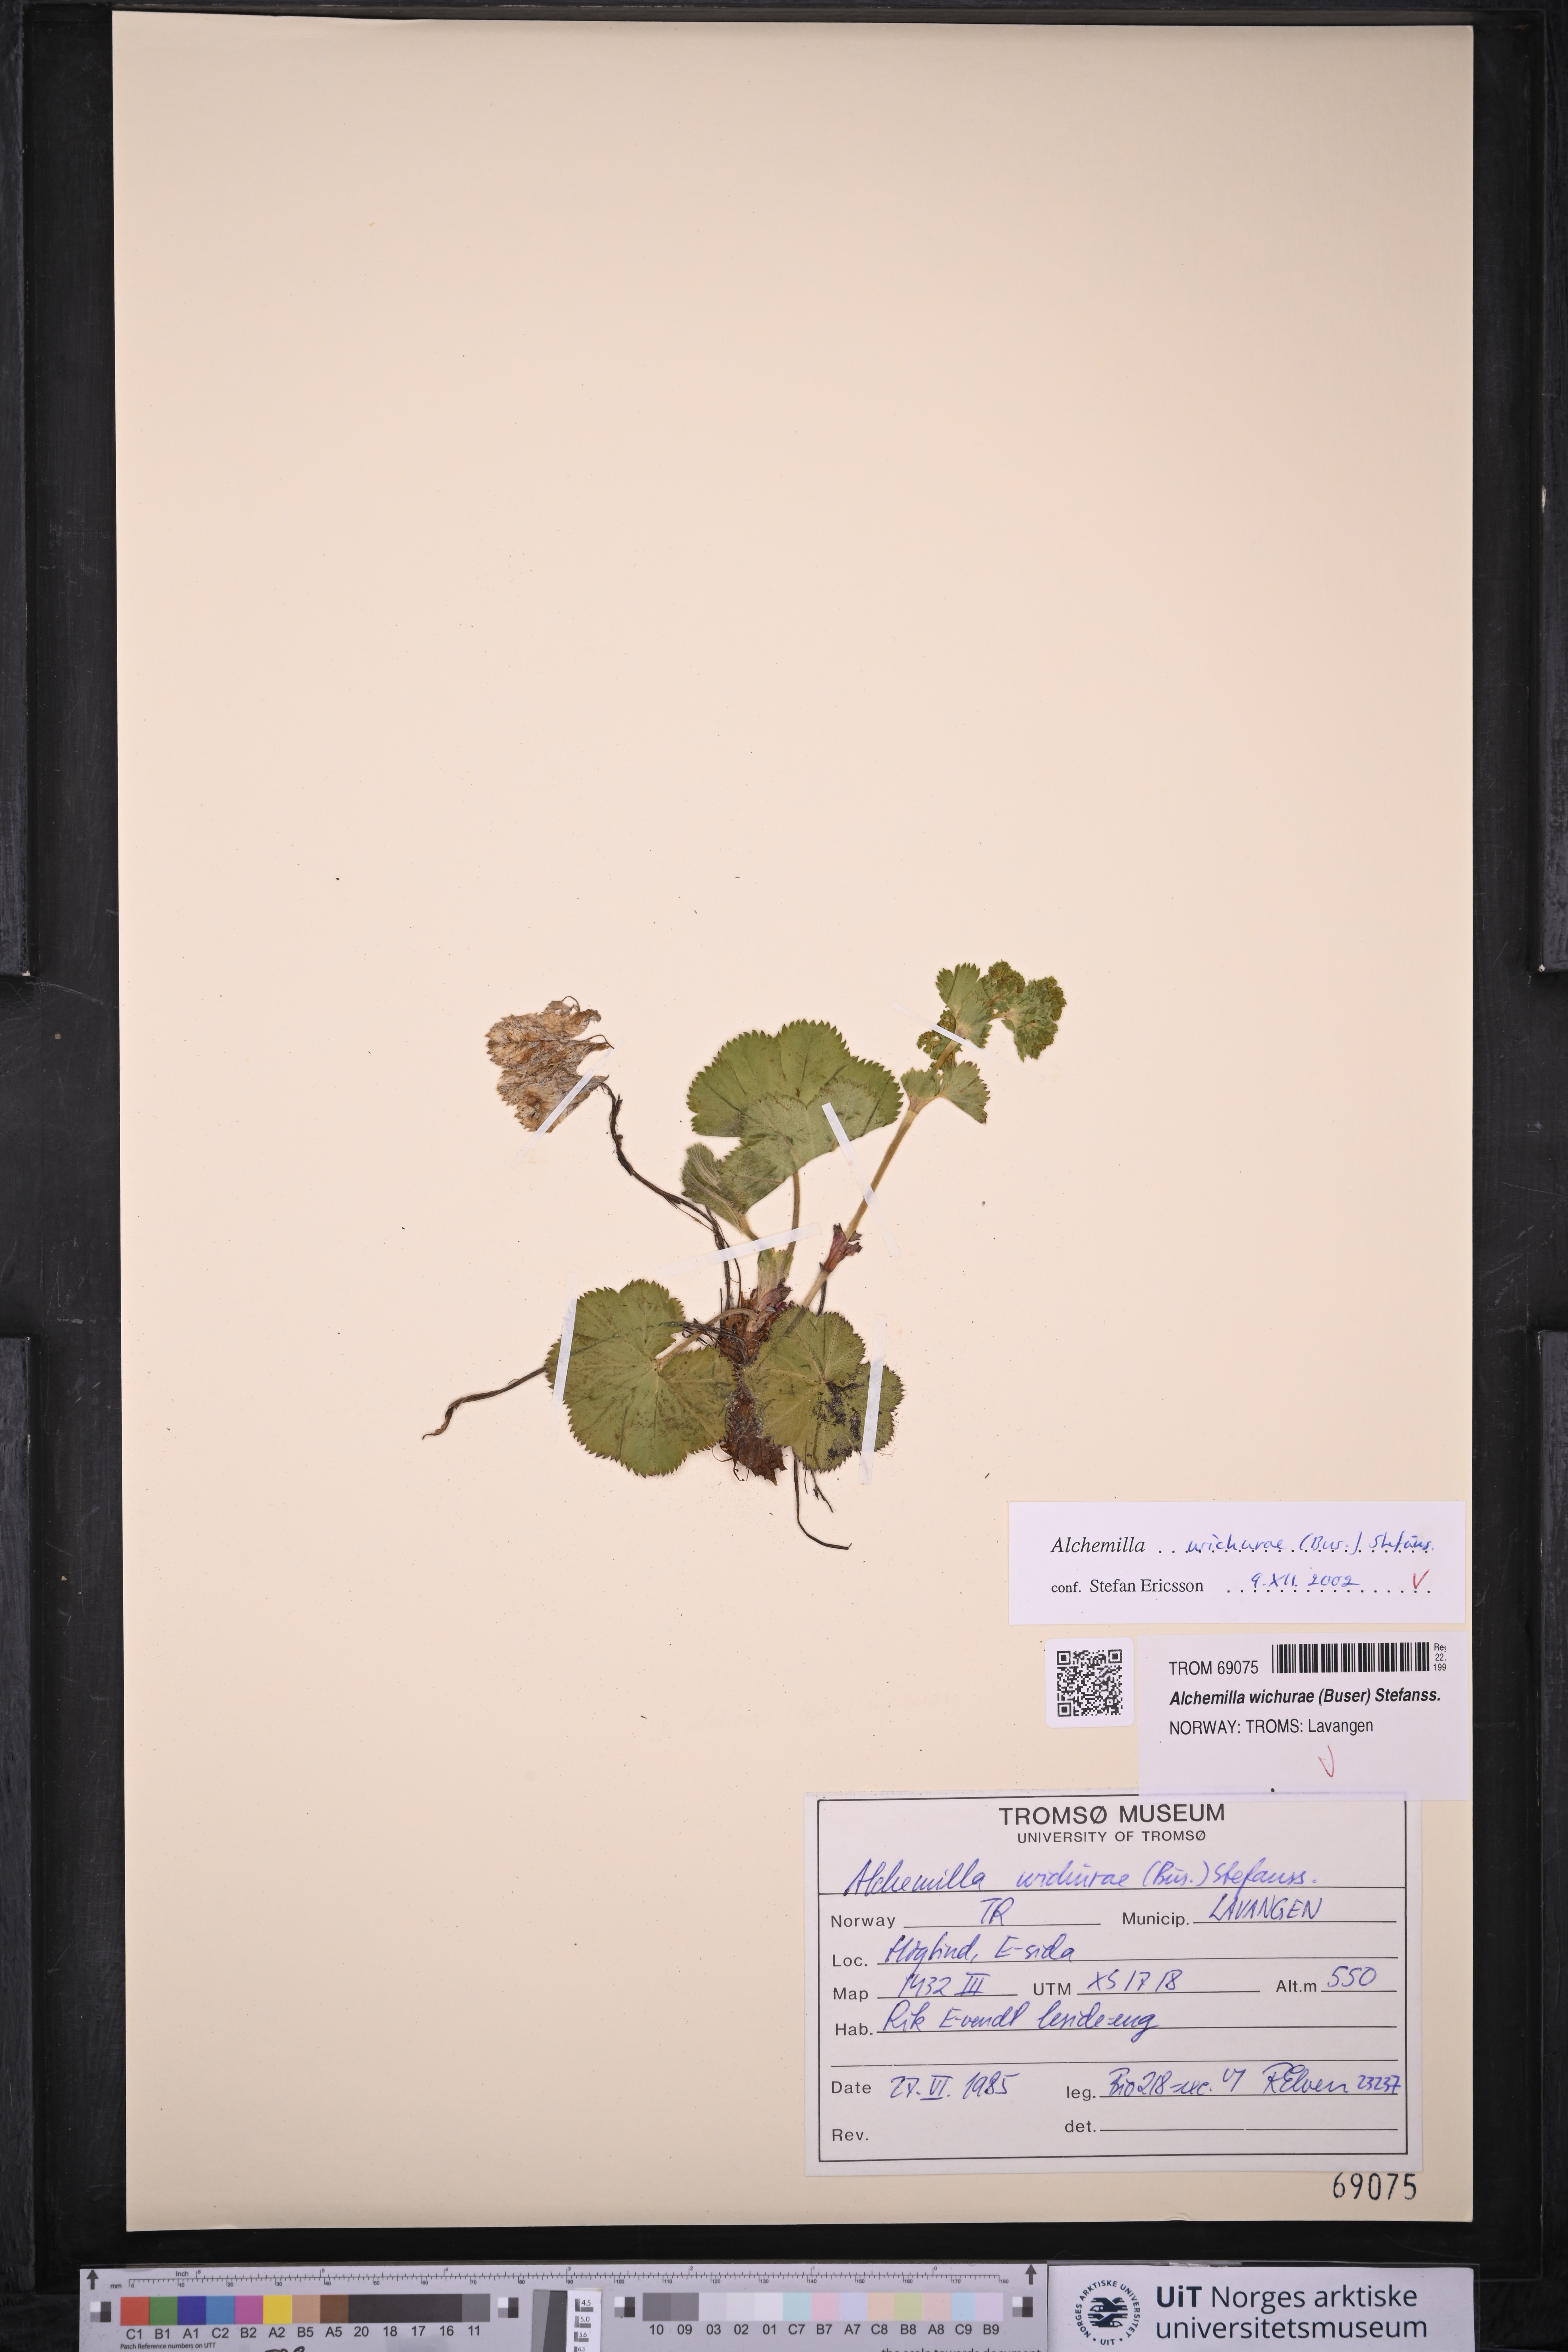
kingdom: Plantae
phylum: Tracheophyta
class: Magnoliopsida
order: Rosales
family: Rosaceae
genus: Alchemilla
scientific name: Alchemilla wichurae
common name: Rock lady's mantle
